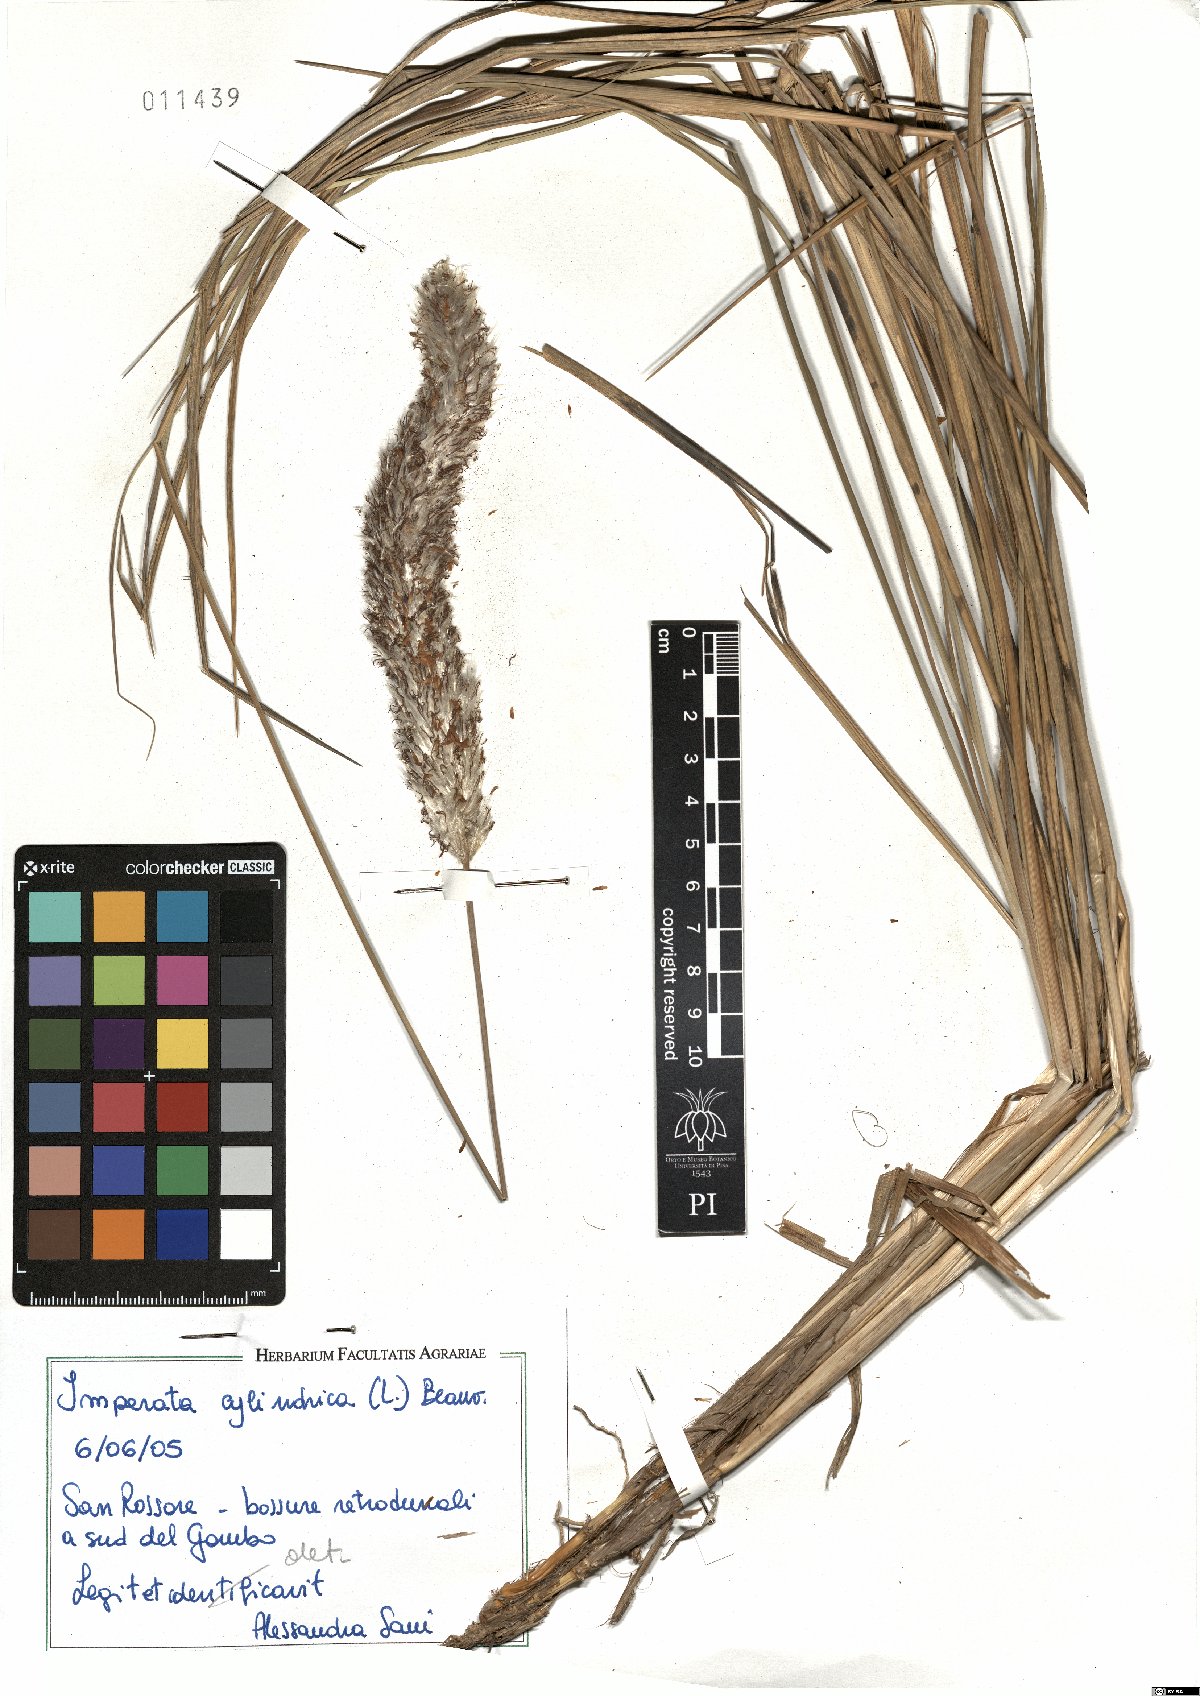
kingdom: Plantae
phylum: Tracheophyta
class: Liliopsida
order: Poales
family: Poaceae
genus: Imperata
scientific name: Imperata cylindrica
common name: Cogongrass
